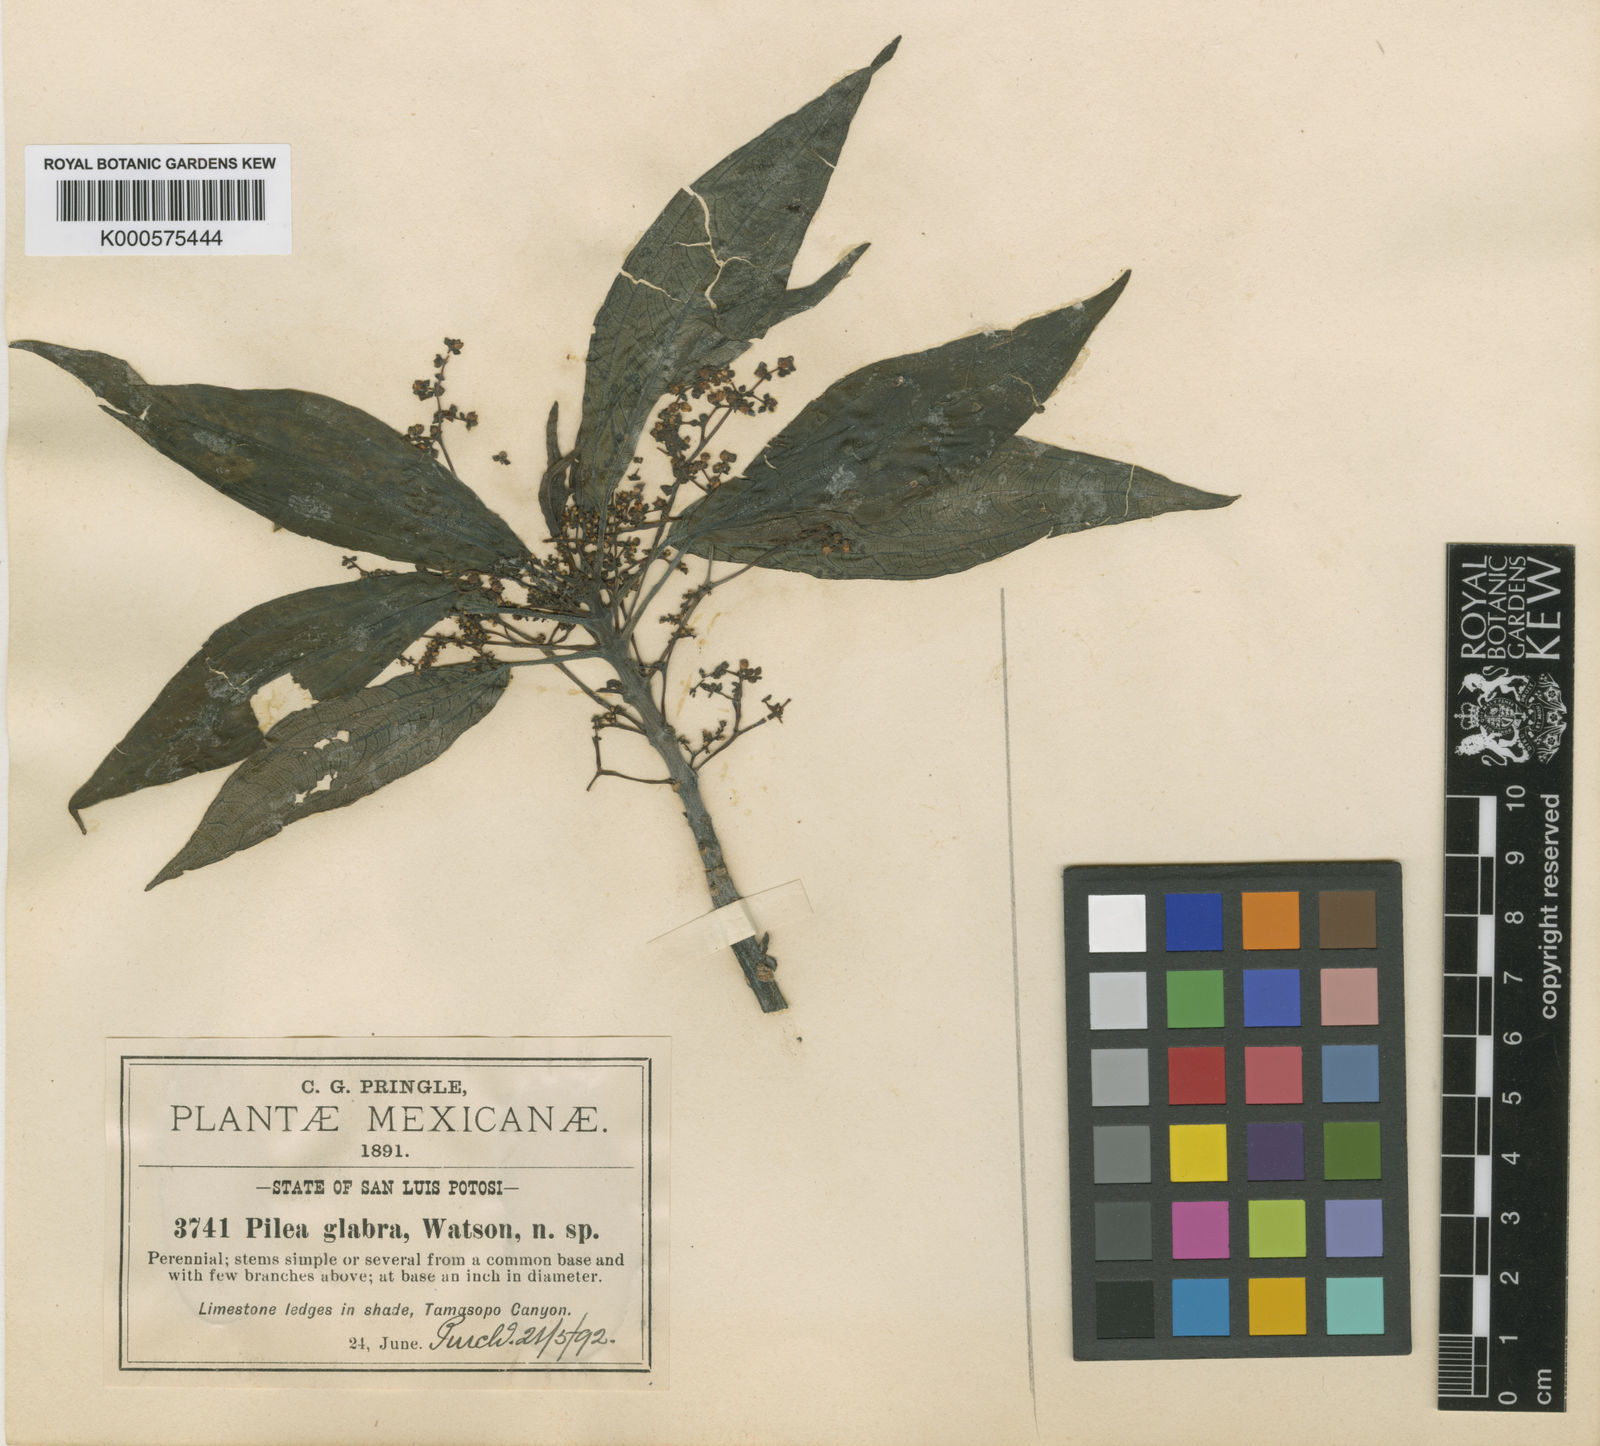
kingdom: Plantae
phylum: Tracheophyta
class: Magnoliopsida
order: Rosales
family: Urticaceae
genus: Pilea
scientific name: Pilea glabra
